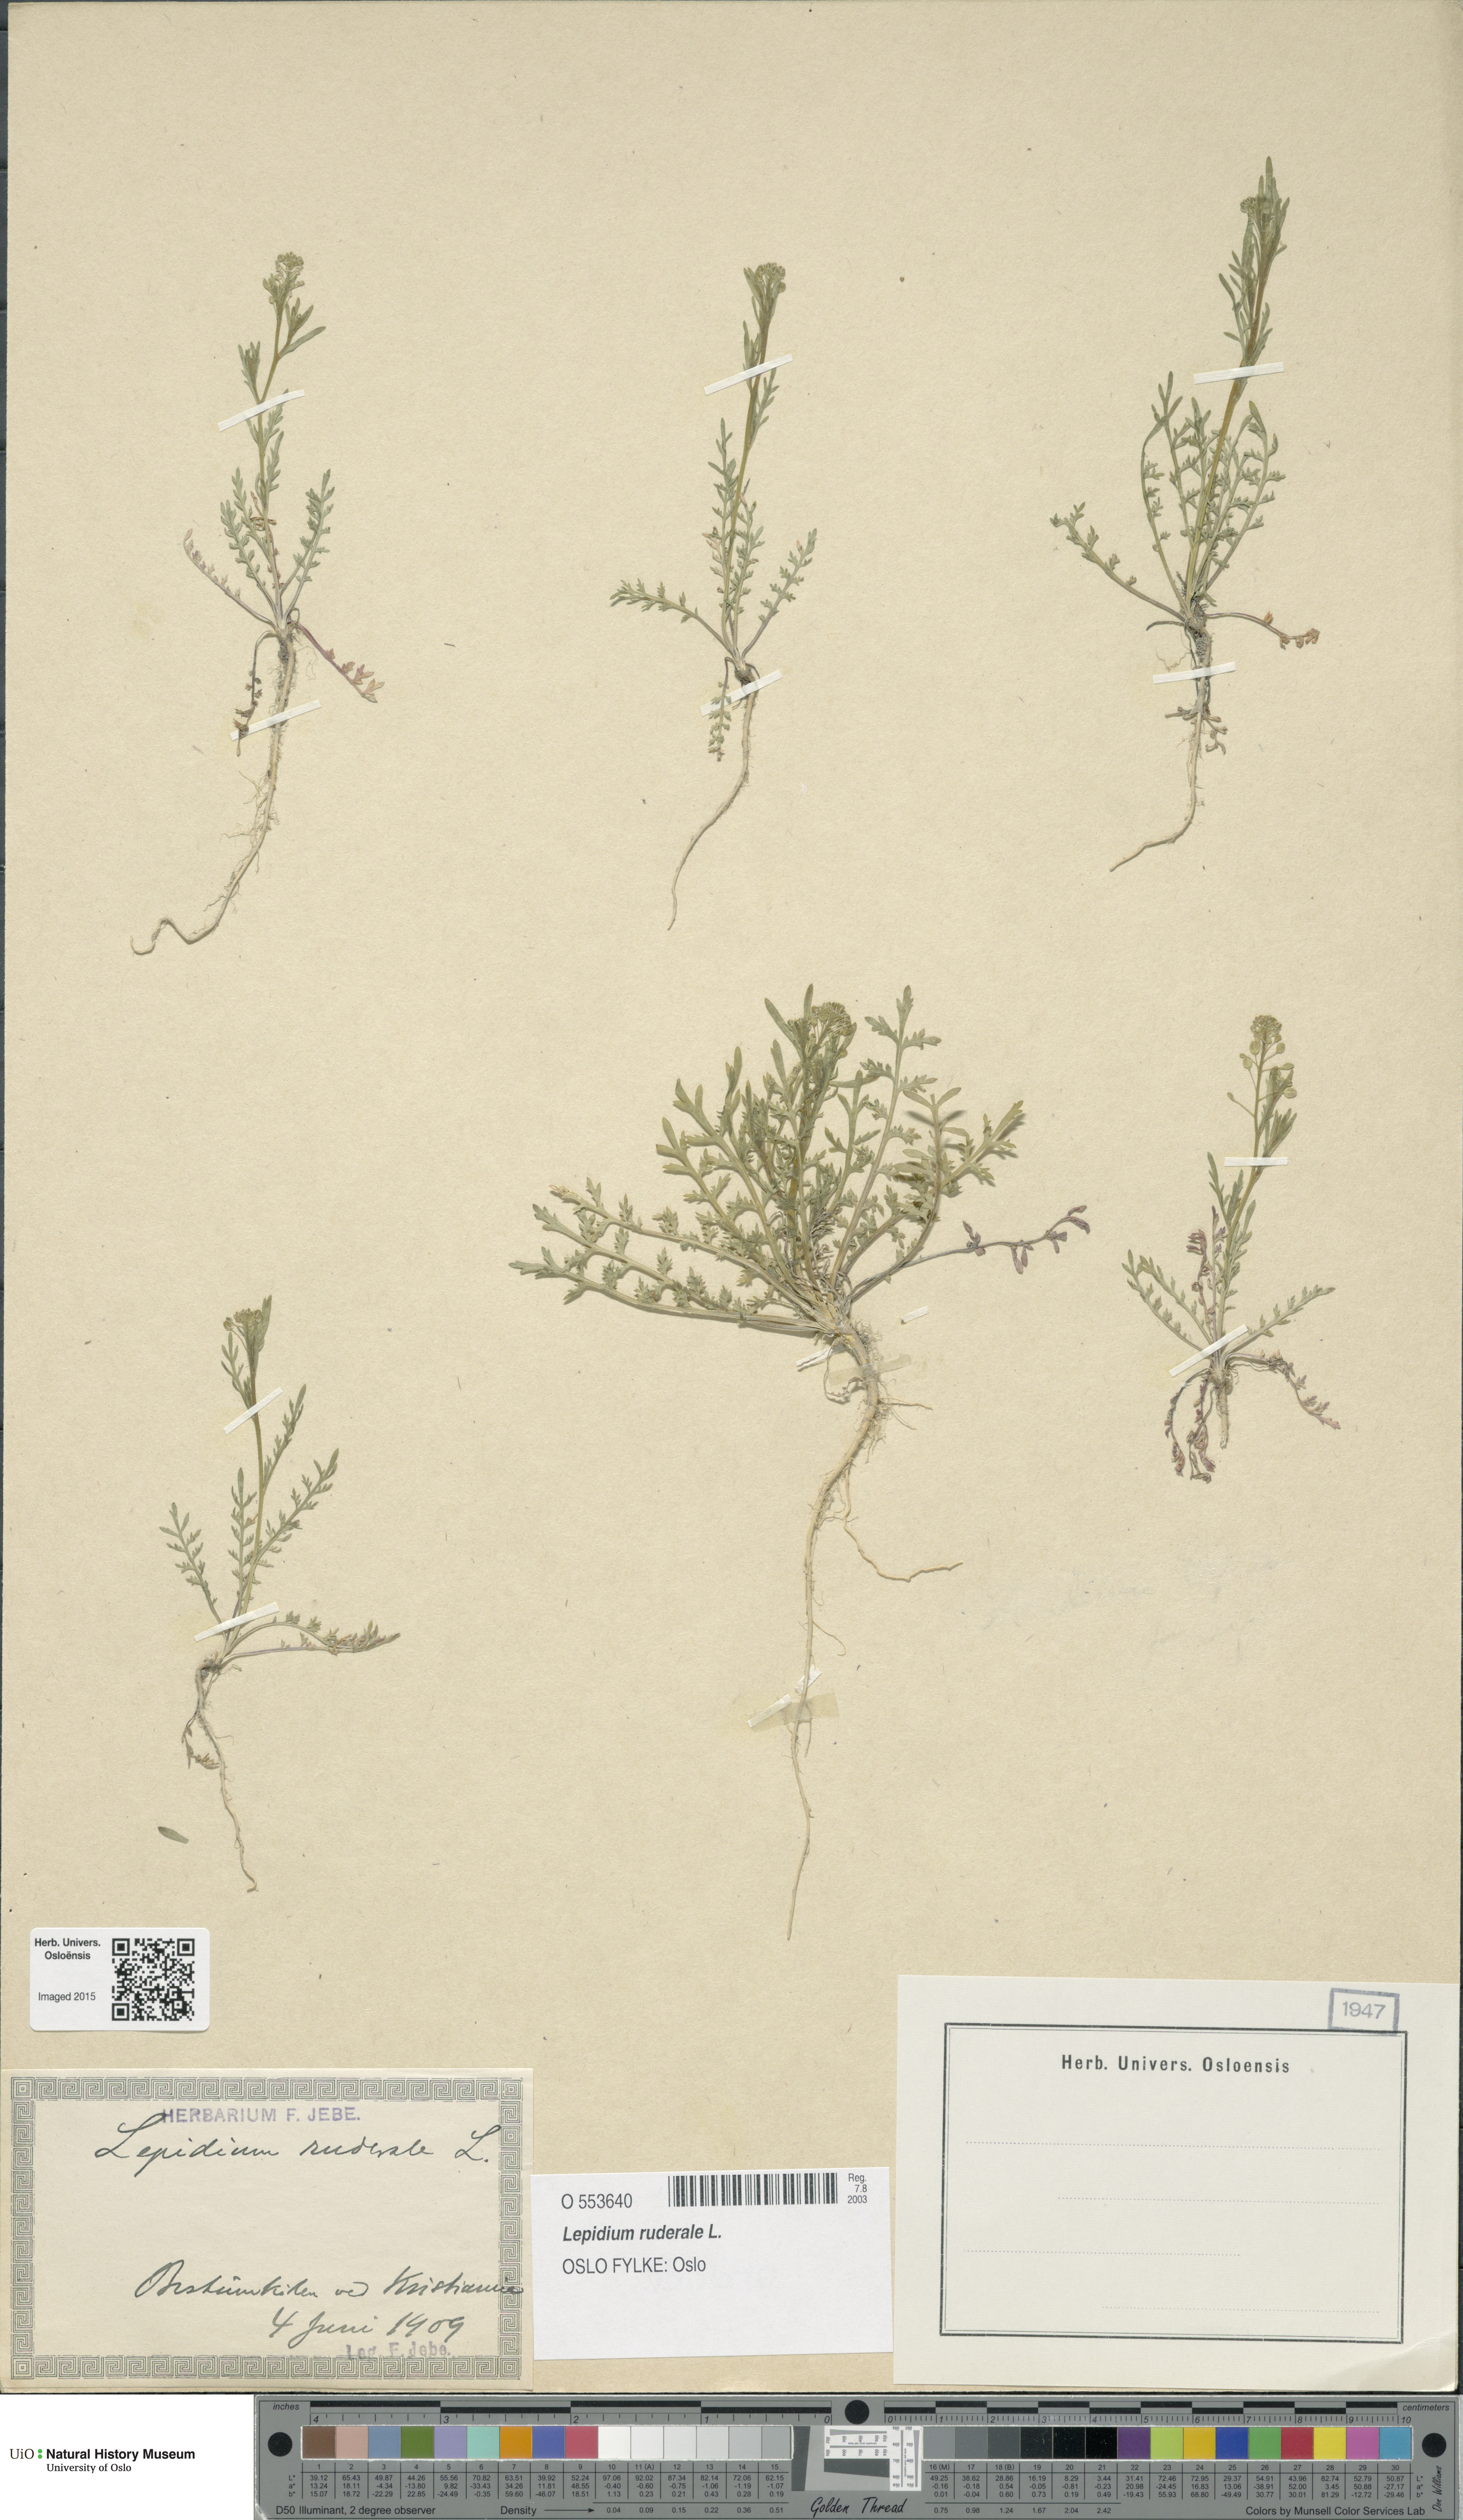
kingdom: Plantae
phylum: Tracheophyta
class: Magnoliopsida
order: Brassicales
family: Brassicaceae
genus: Lepidium
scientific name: Lepidium ruderale
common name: Narrow-leaved pepperwort
